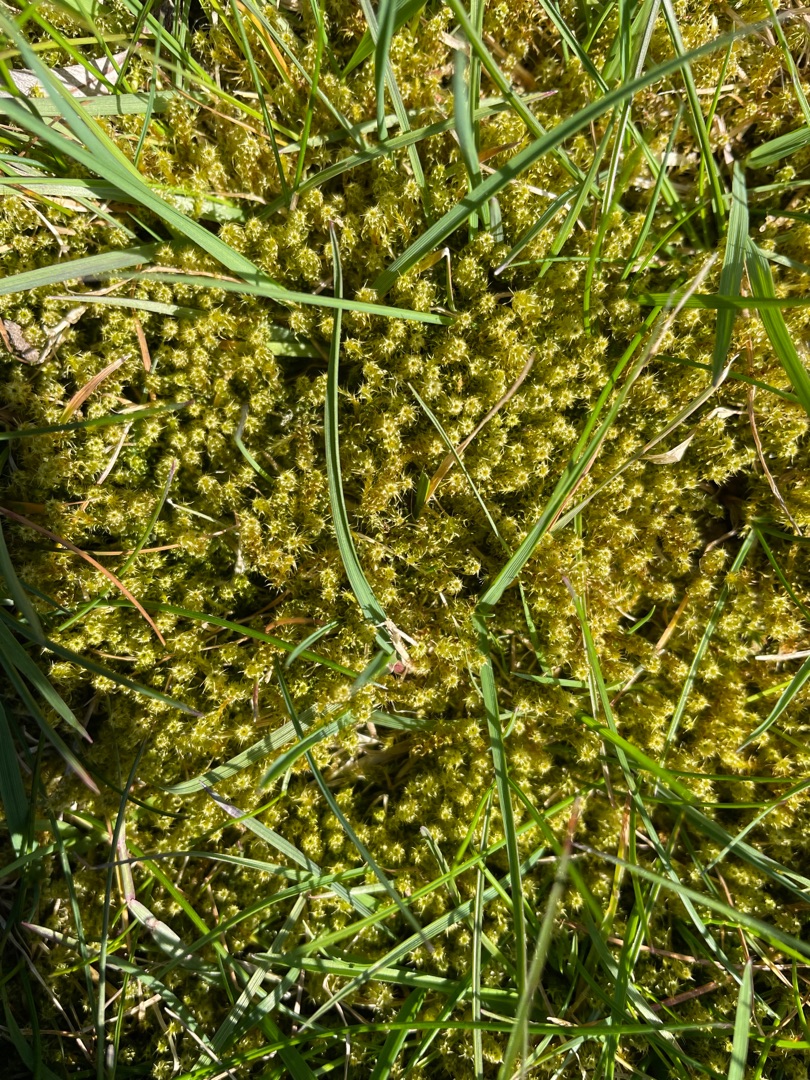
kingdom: Plantae
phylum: Bryophyta
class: Bryopsida
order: Hypnales
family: Hylocomiaceae
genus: Rhytidiadelphus
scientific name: Rhytidiadelphus squarrosus
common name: Plæne-kransemos
